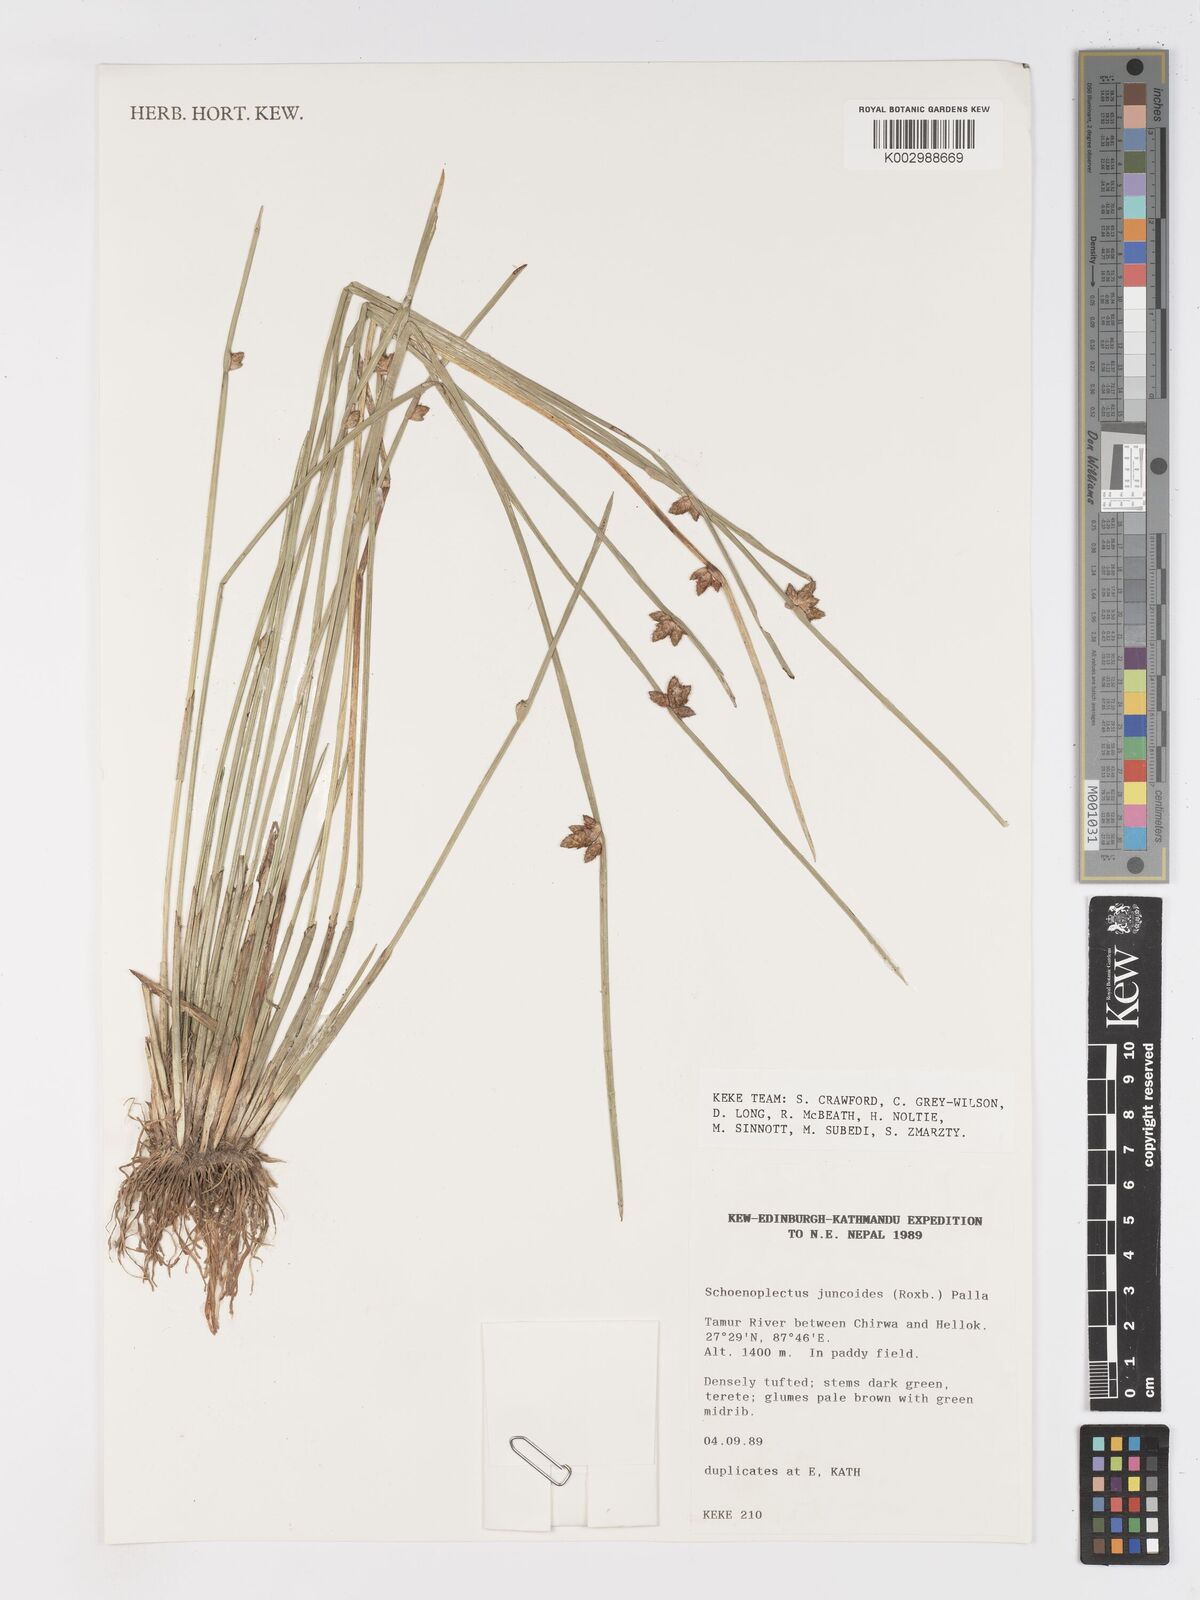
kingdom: Plantae
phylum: Tracheophyta
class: Liliopsida
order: Poales
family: Cyperaceae
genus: Schoenoplectiella
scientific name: Schoenoplectiella juncoides
